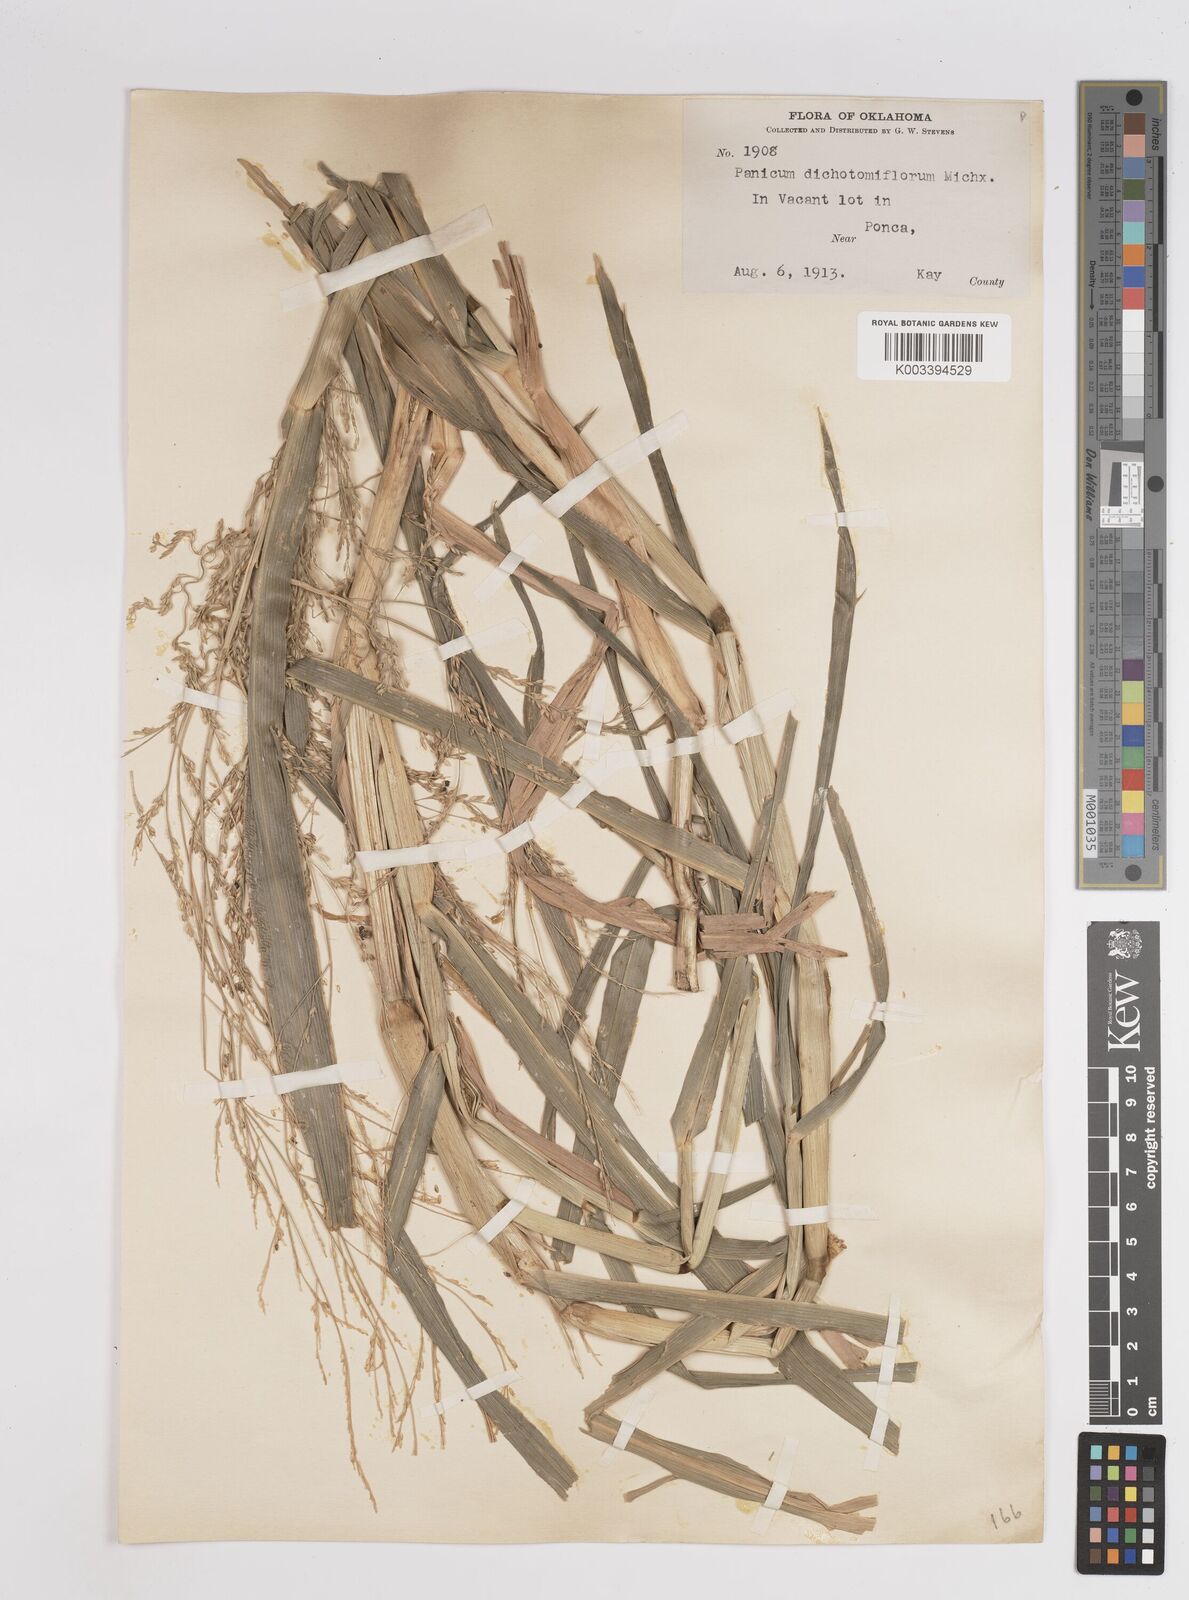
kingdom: Plantae
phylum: Tracheophyta
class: Liliopsida
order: Poales
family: Poaceae
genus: Panicum
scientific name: Panicum dichotomiflorum
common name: Autumn millet
